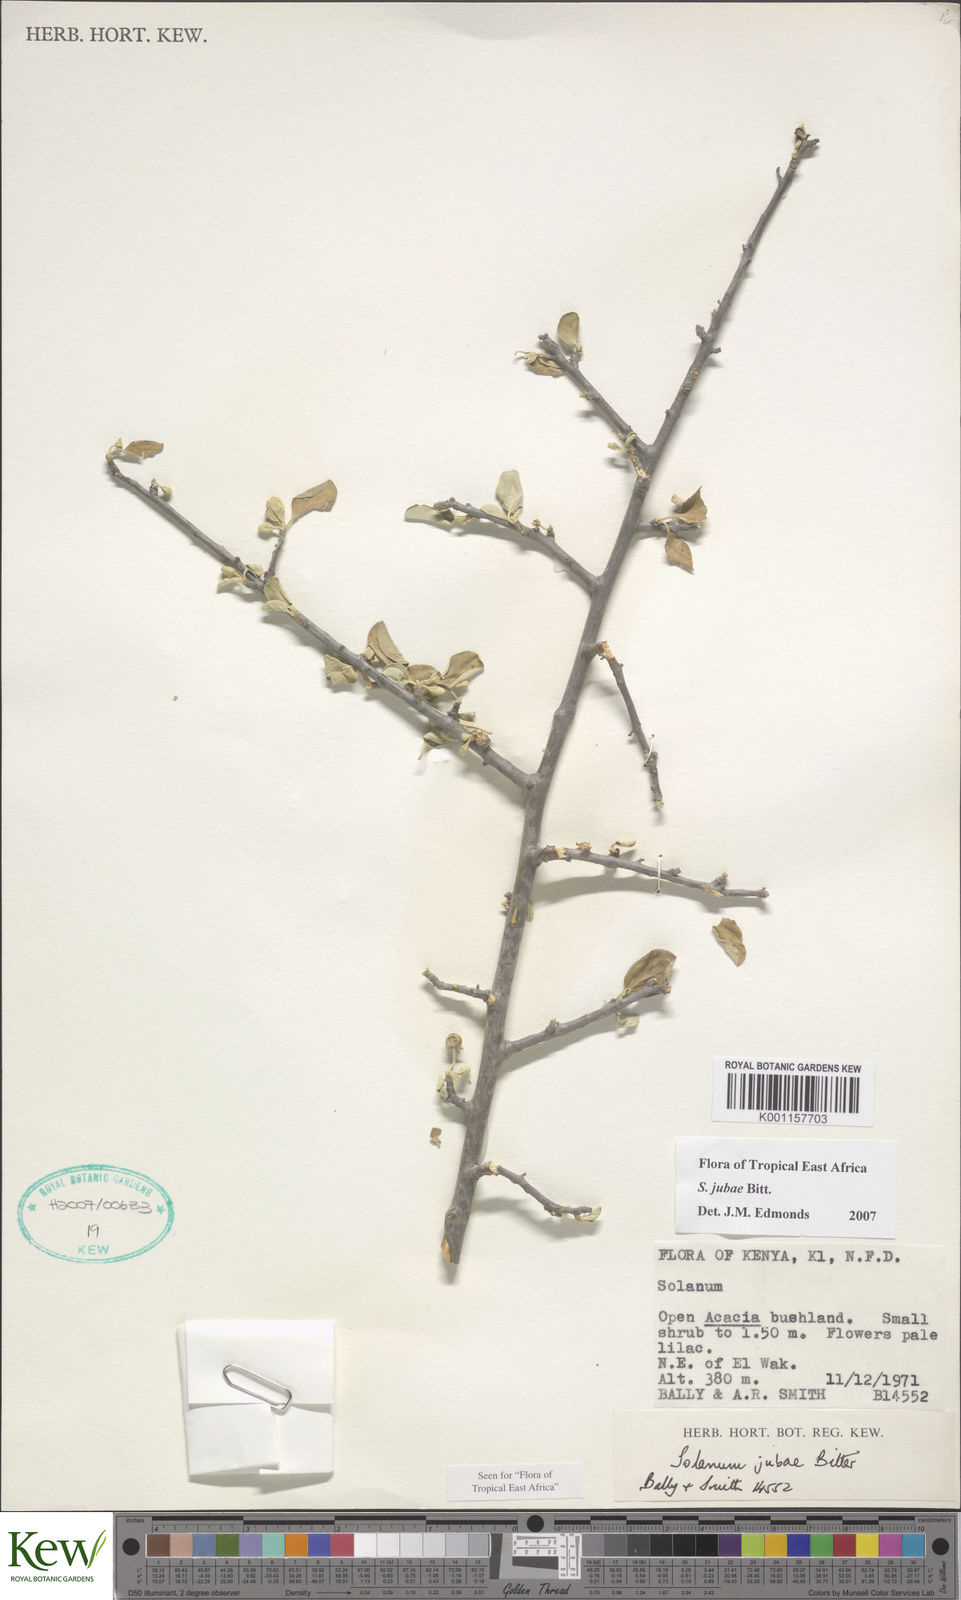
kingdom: Plantae
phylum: Tracheophyta
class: Magnoliopsida
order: Solanales
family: Solanaceae
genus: Solanum
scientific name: Solanum jubae
